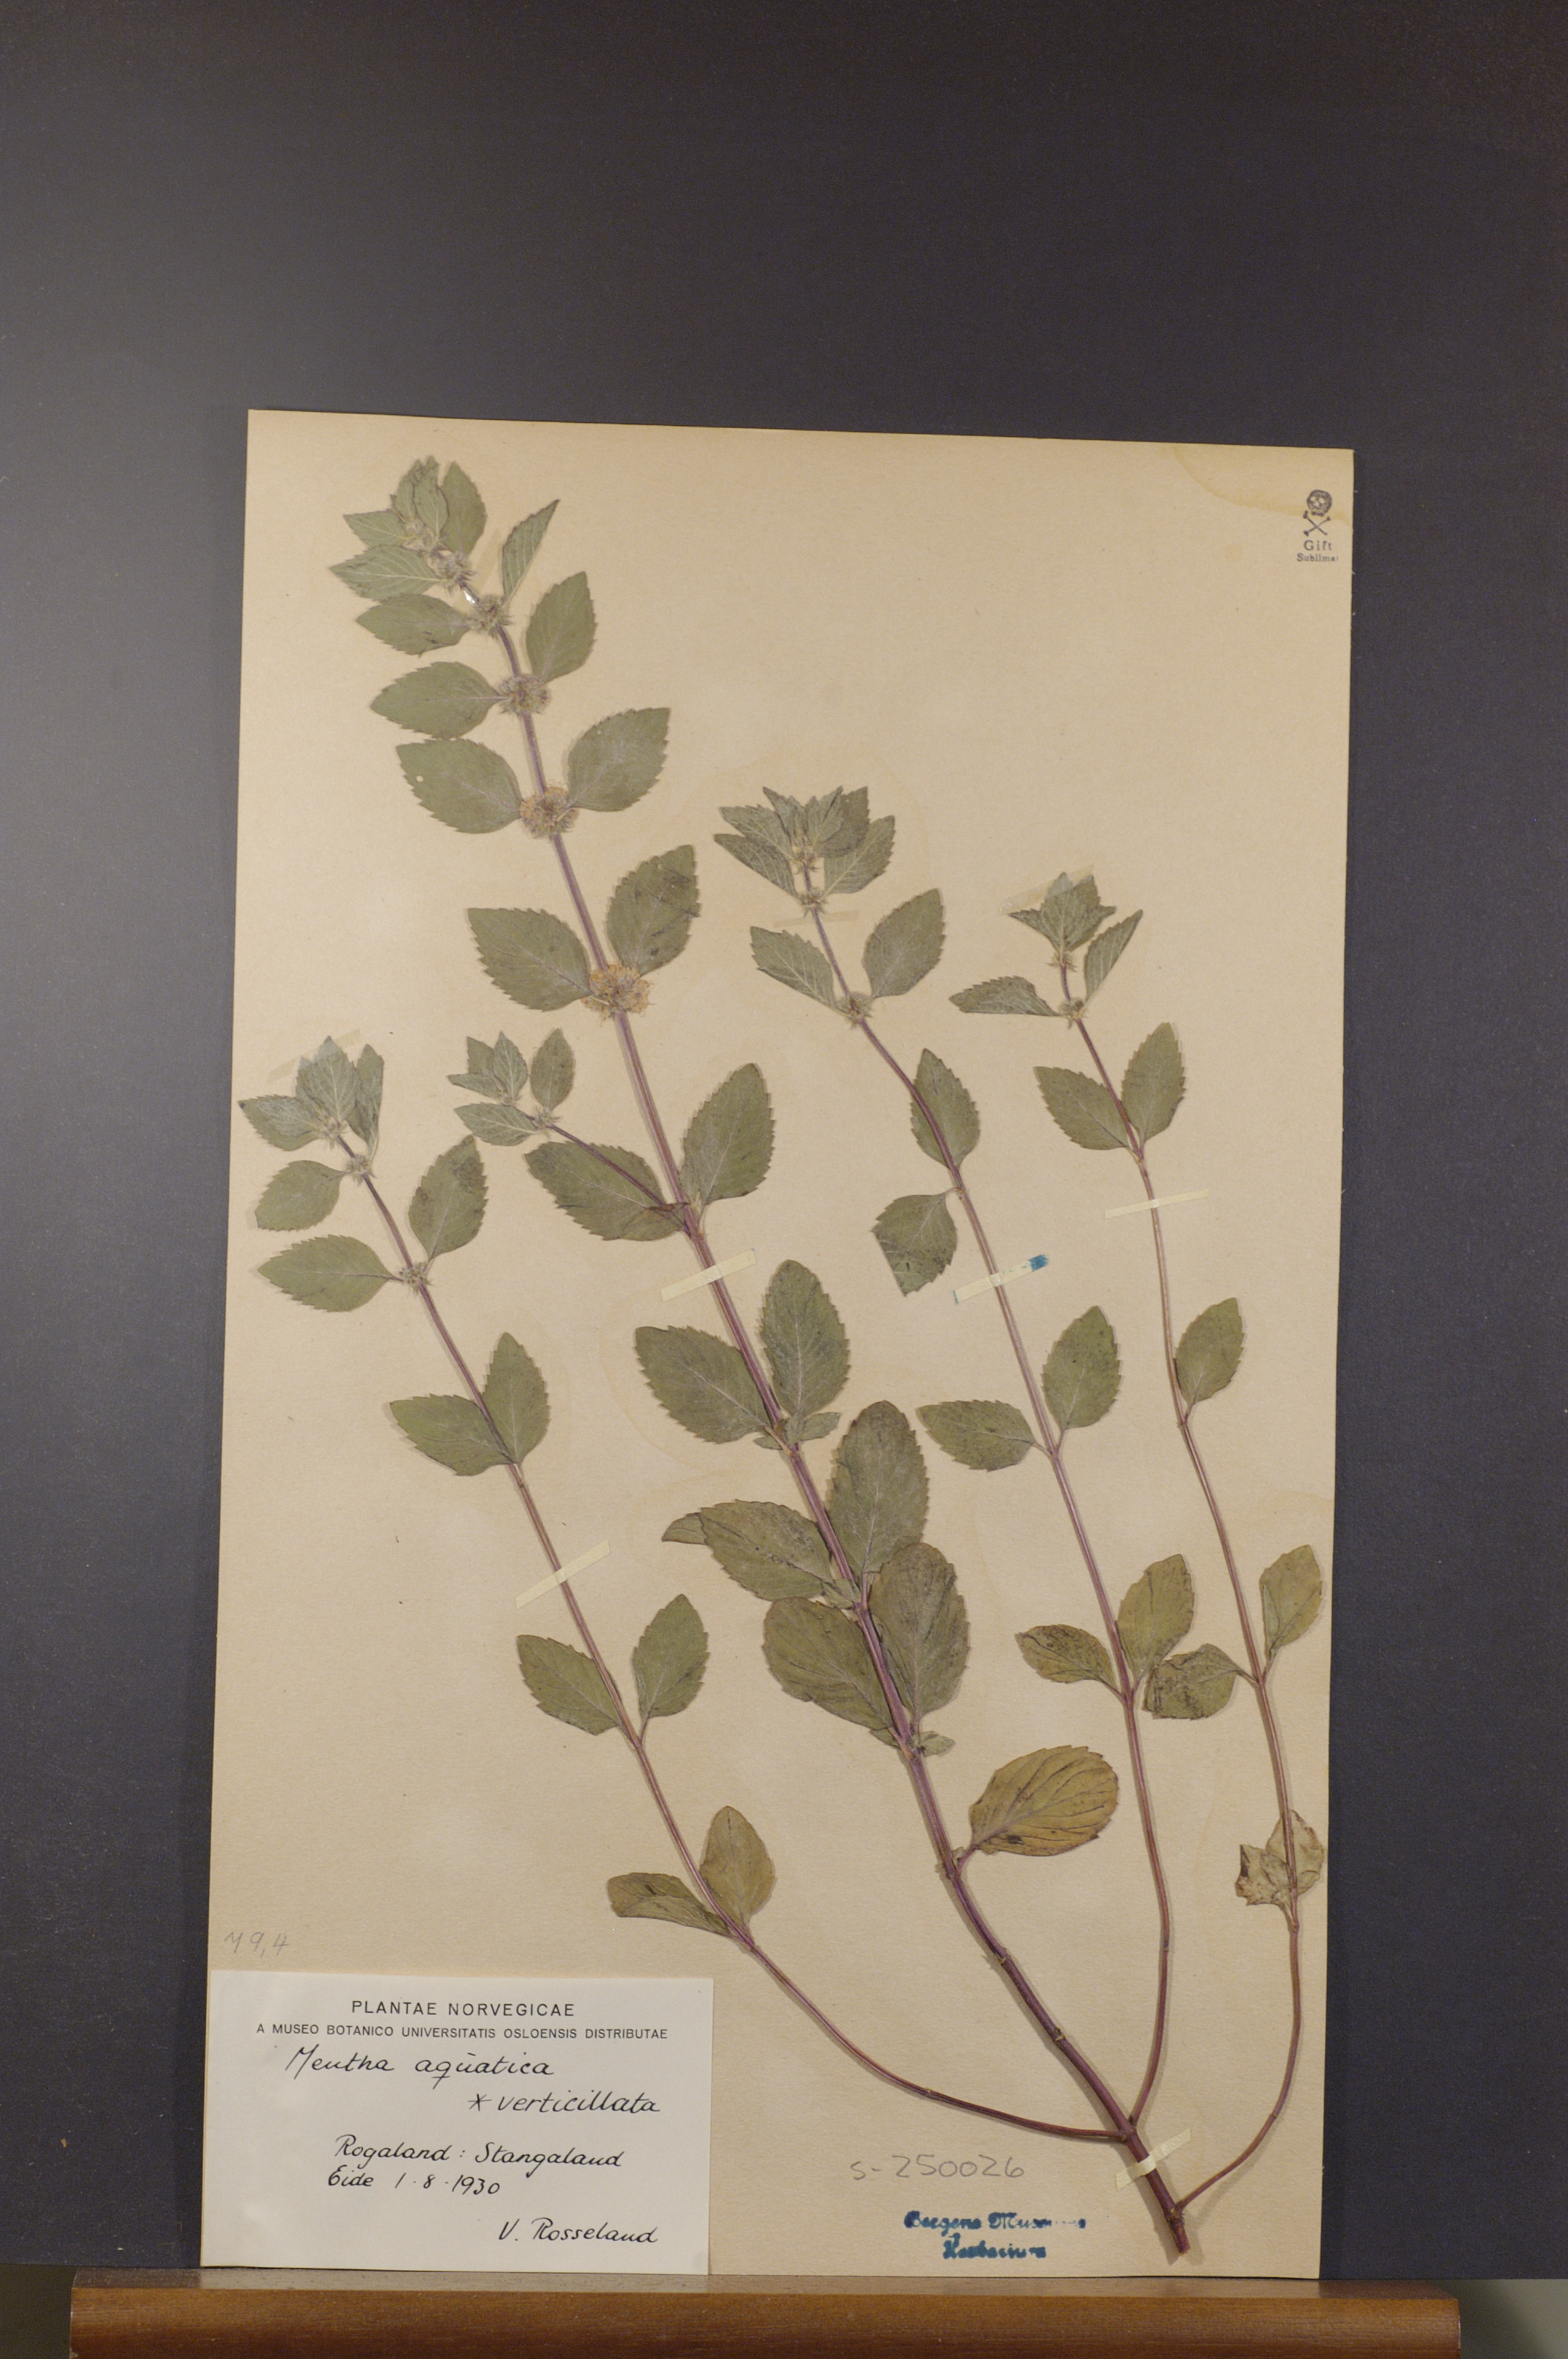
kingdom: Plantae
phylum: Tracheophyta
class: Magnoliopsida
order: Lamiales
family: Lamiaceae
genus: Mentha
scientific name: Mentha aquatica
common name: Water mint
